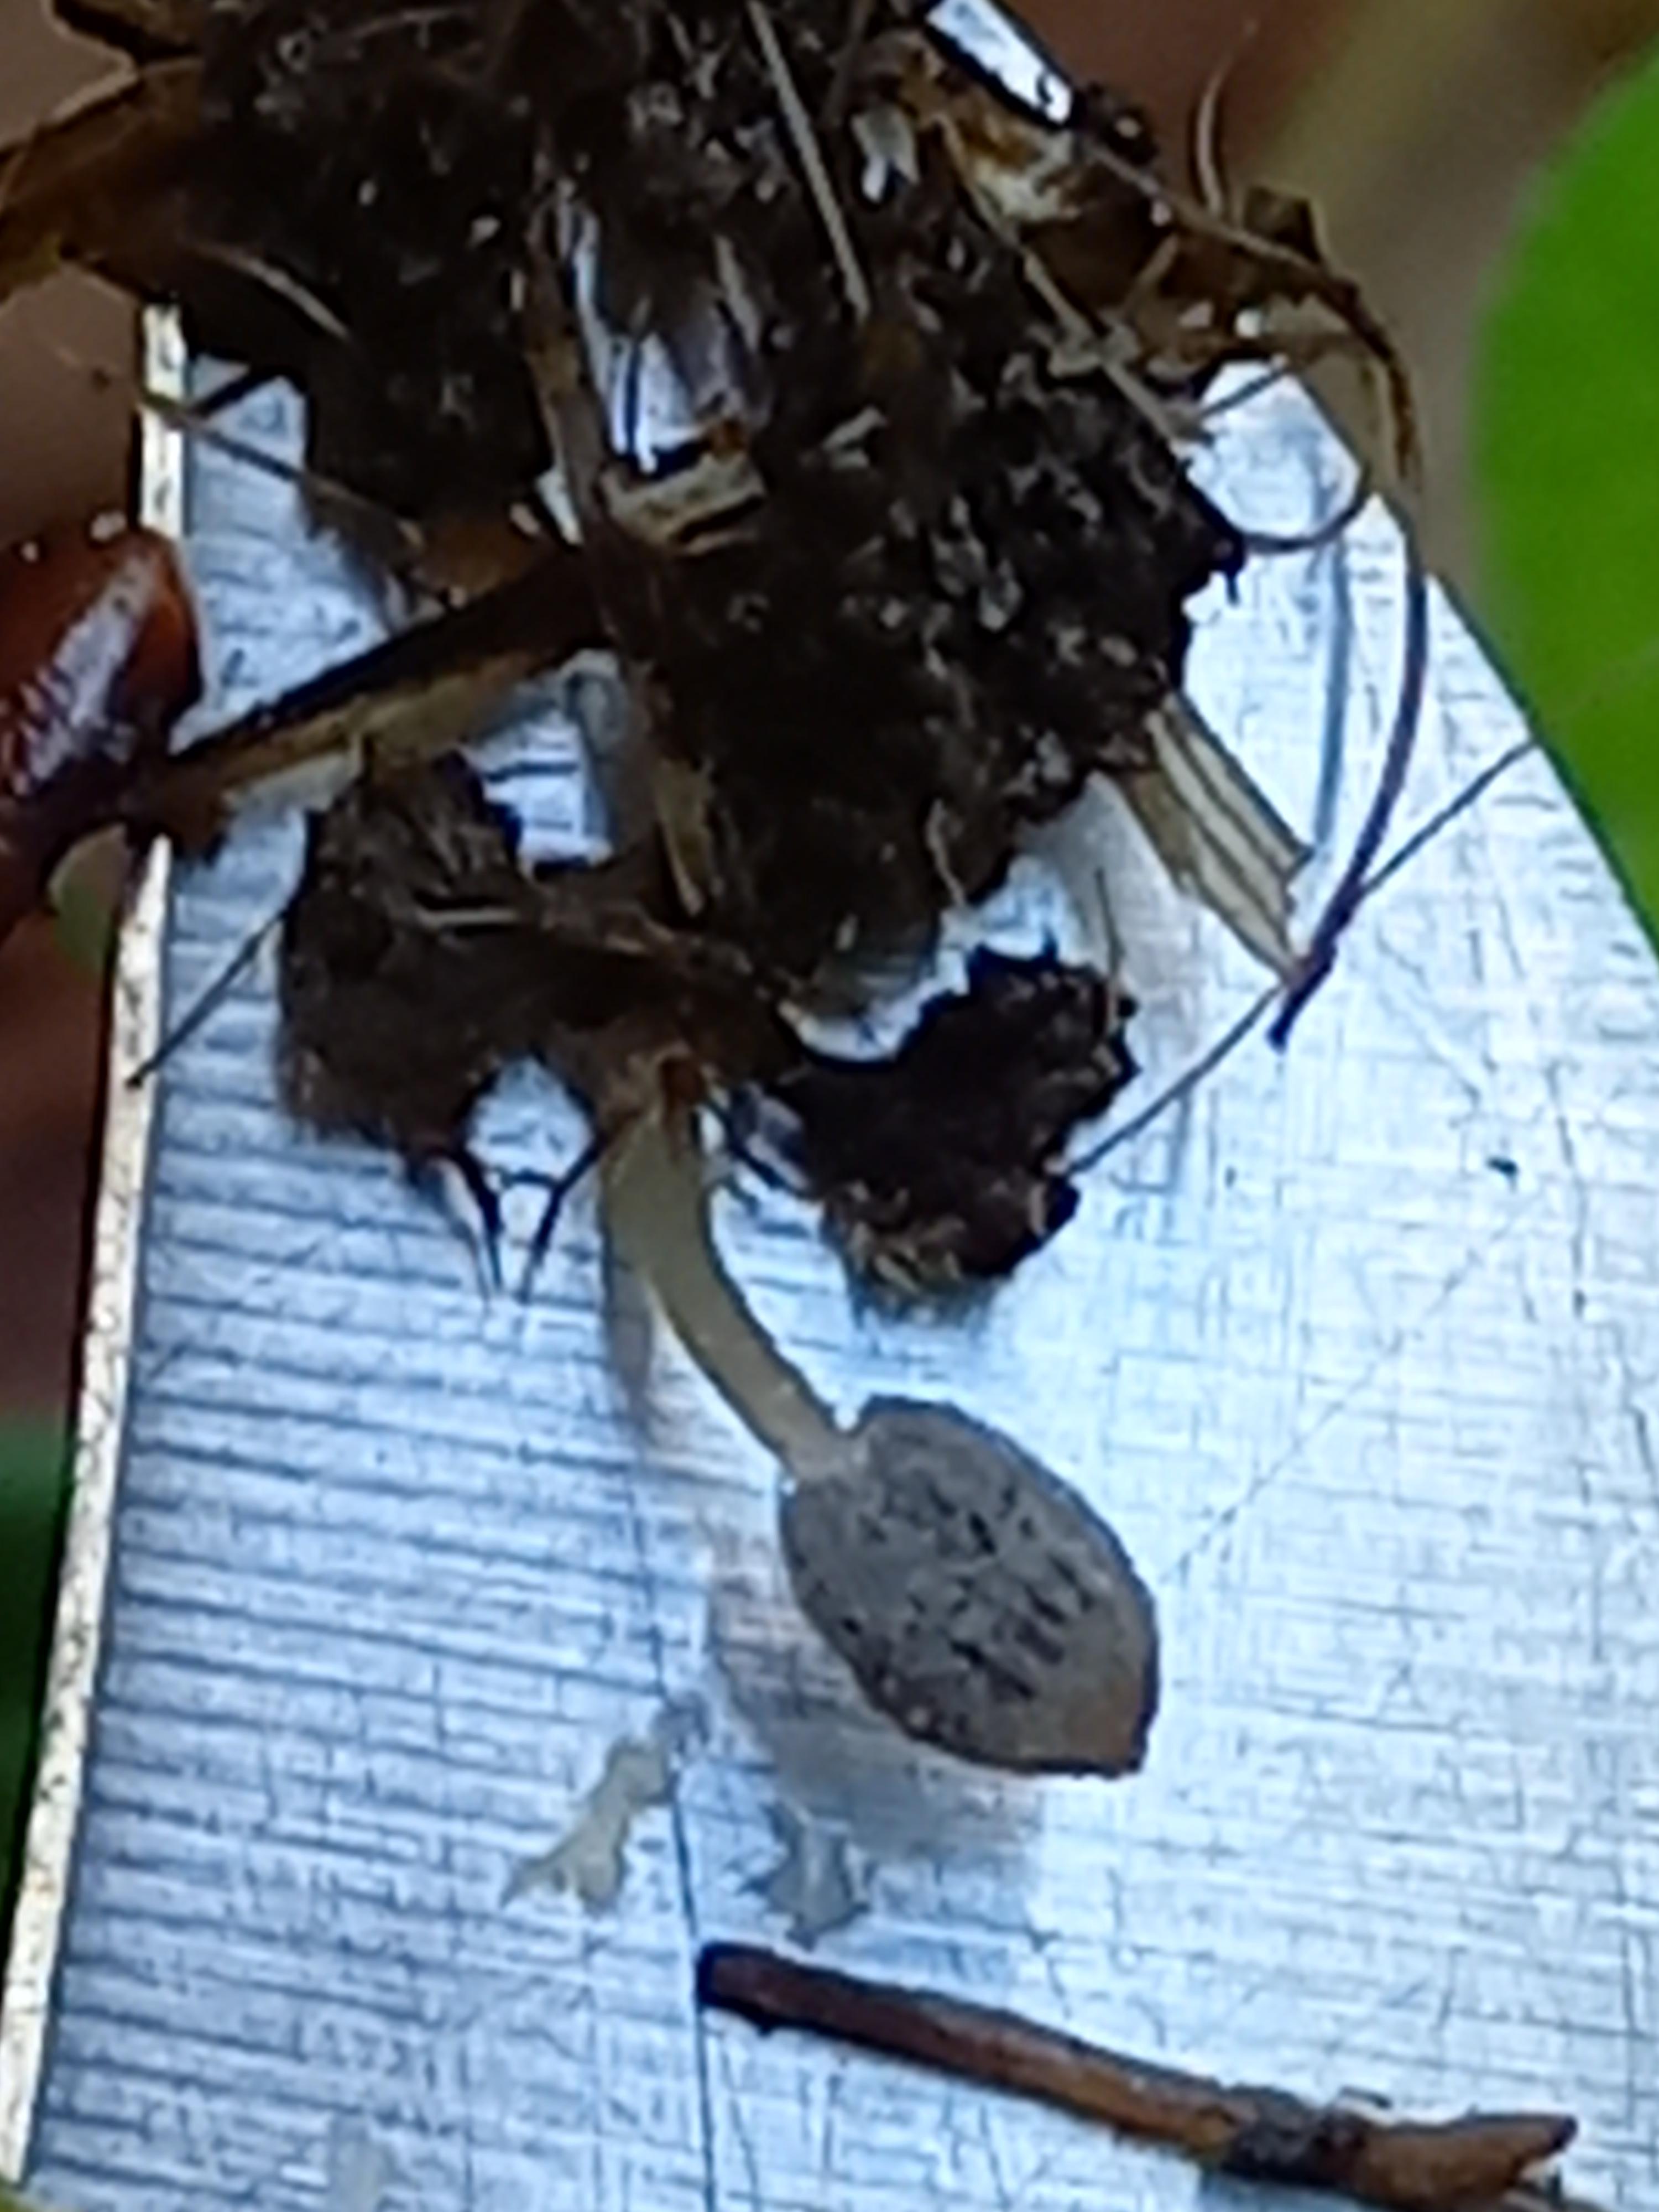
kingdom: Fungi
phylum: Basidiomycota
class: Agaricomycetes
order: Agaricales
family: Psathyrellaceae
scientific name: Psathyrellaceae
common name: mørkhatfamilien
